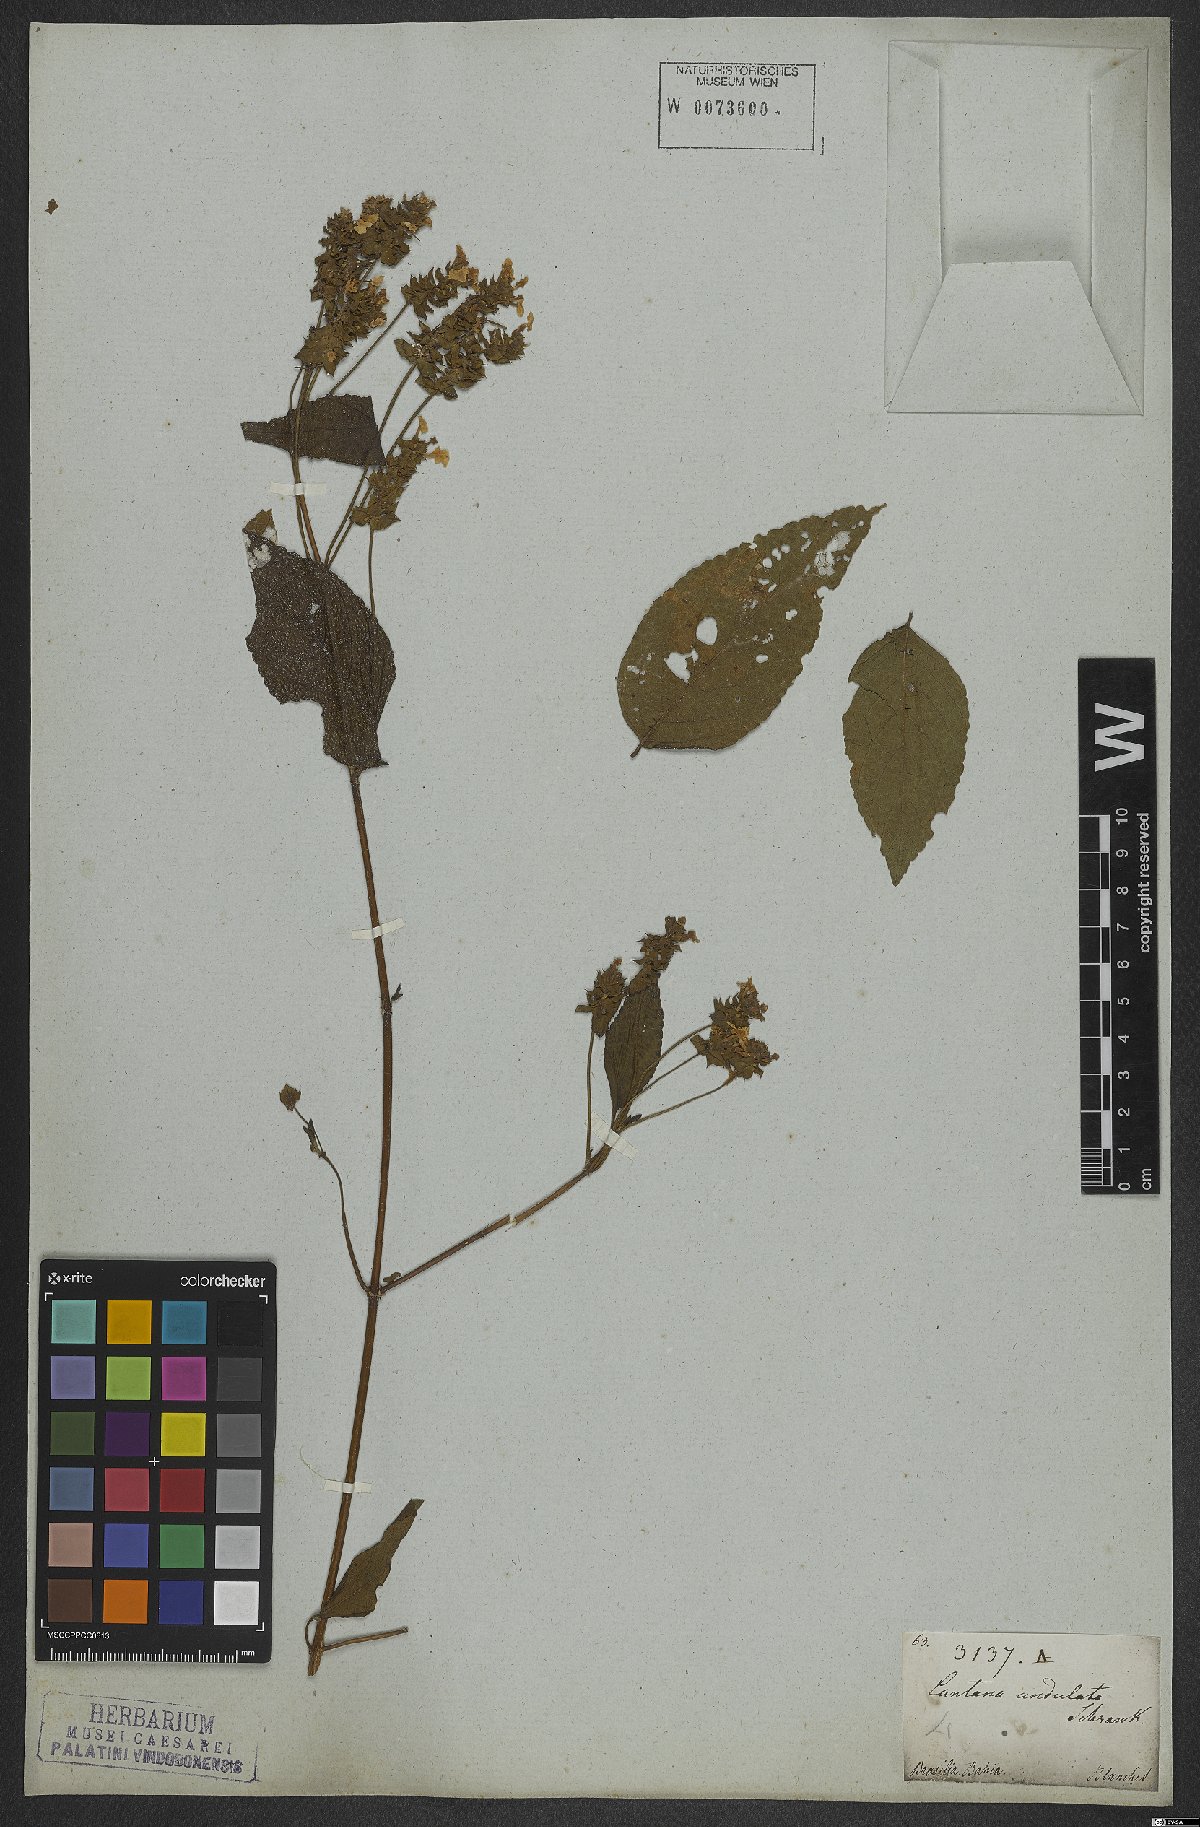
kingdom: Plantae
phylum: Tracheophyta
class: Magnoliopsida
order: Lamiales
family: Verbenaceae
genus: Lantana
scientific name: Lantana undulata
